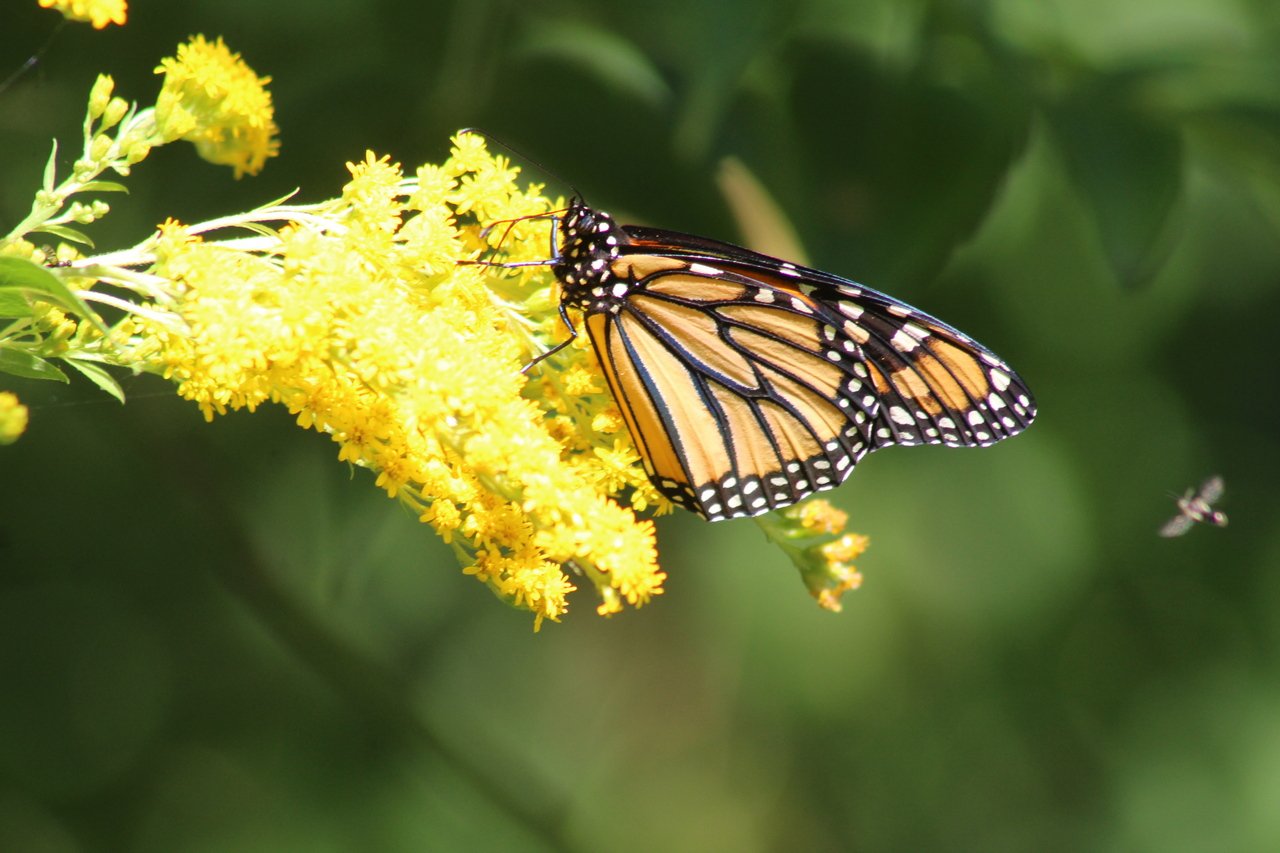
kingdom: Animalia
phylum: Arthropoda
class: Insecta
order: Lepidoptera
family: Nymphalidae
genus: Danaus
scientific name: Danaus plexippus
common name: Monarch
